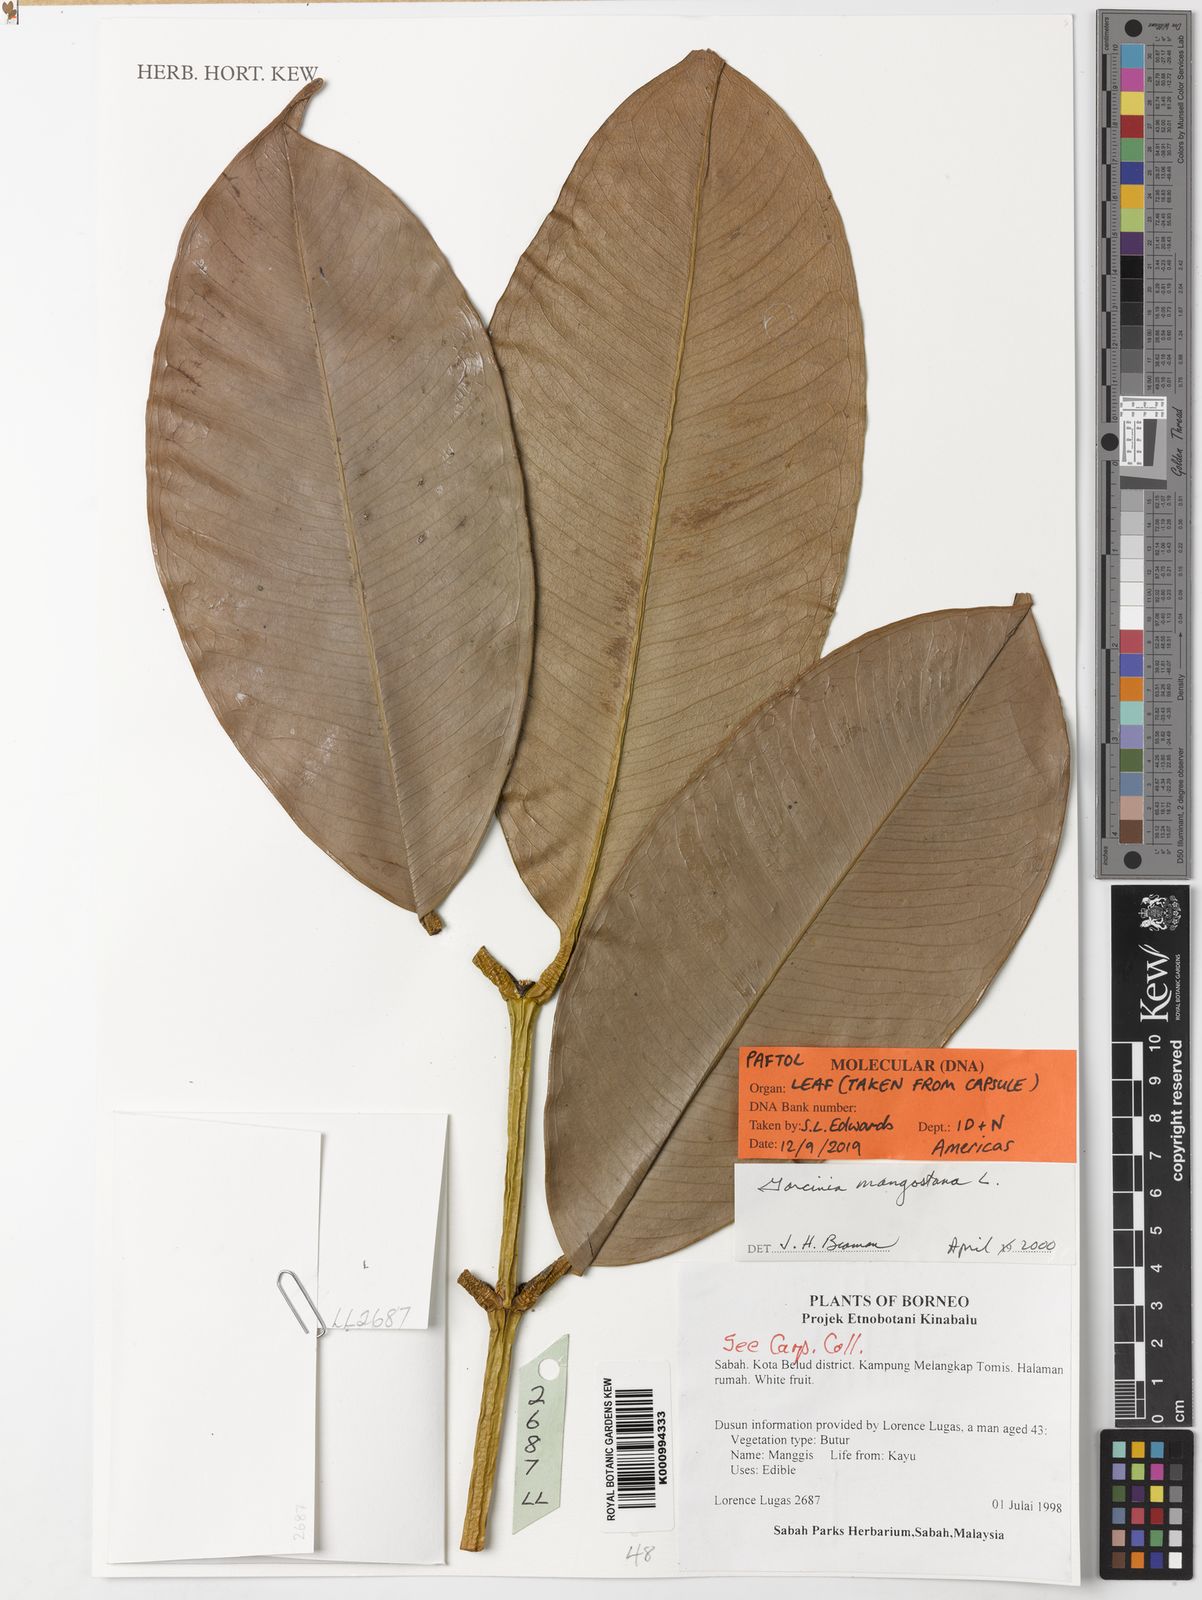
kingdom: Plantae
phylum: Tracheophyta
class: Magnoliopsida
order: Malpighiales
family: Clusiaceae
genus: Garcinia
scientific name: Garcinia mangostana
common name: Mangosteen
